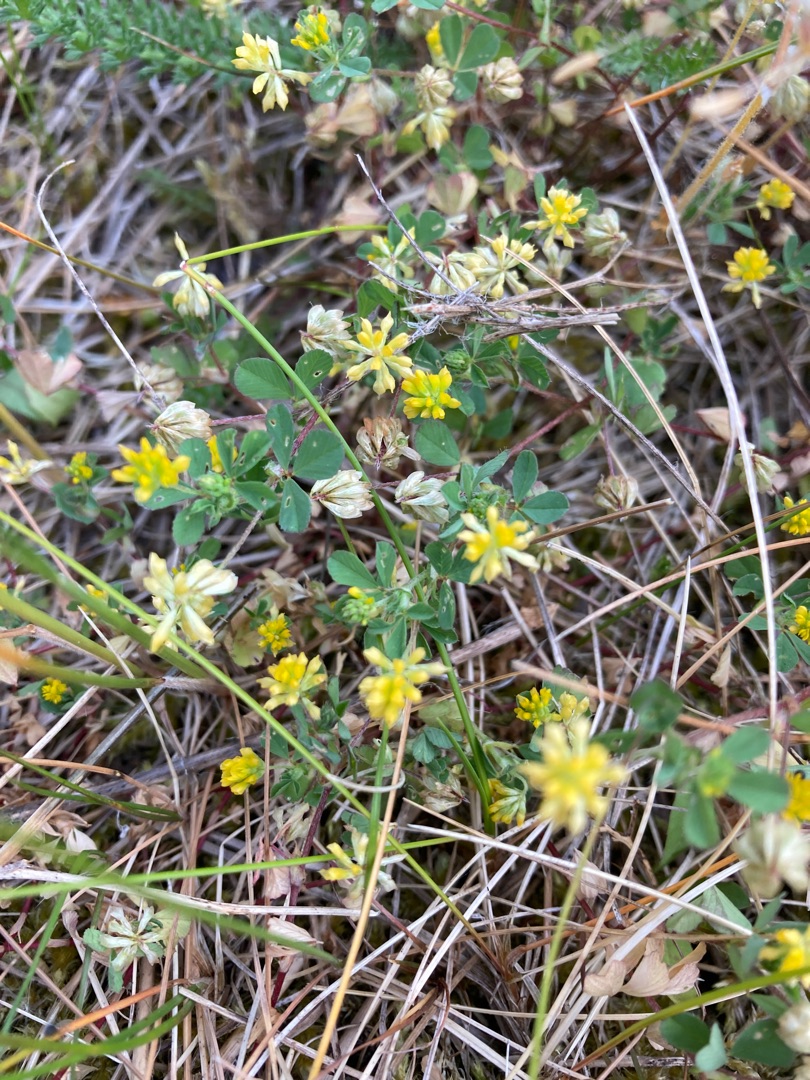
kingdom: Plantae
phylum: Tracheophyta
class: Magnoliopsida
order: Fabales
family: Fabaceae
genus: Trifolium
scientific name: Trifolium dubium
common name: Fin kløver
